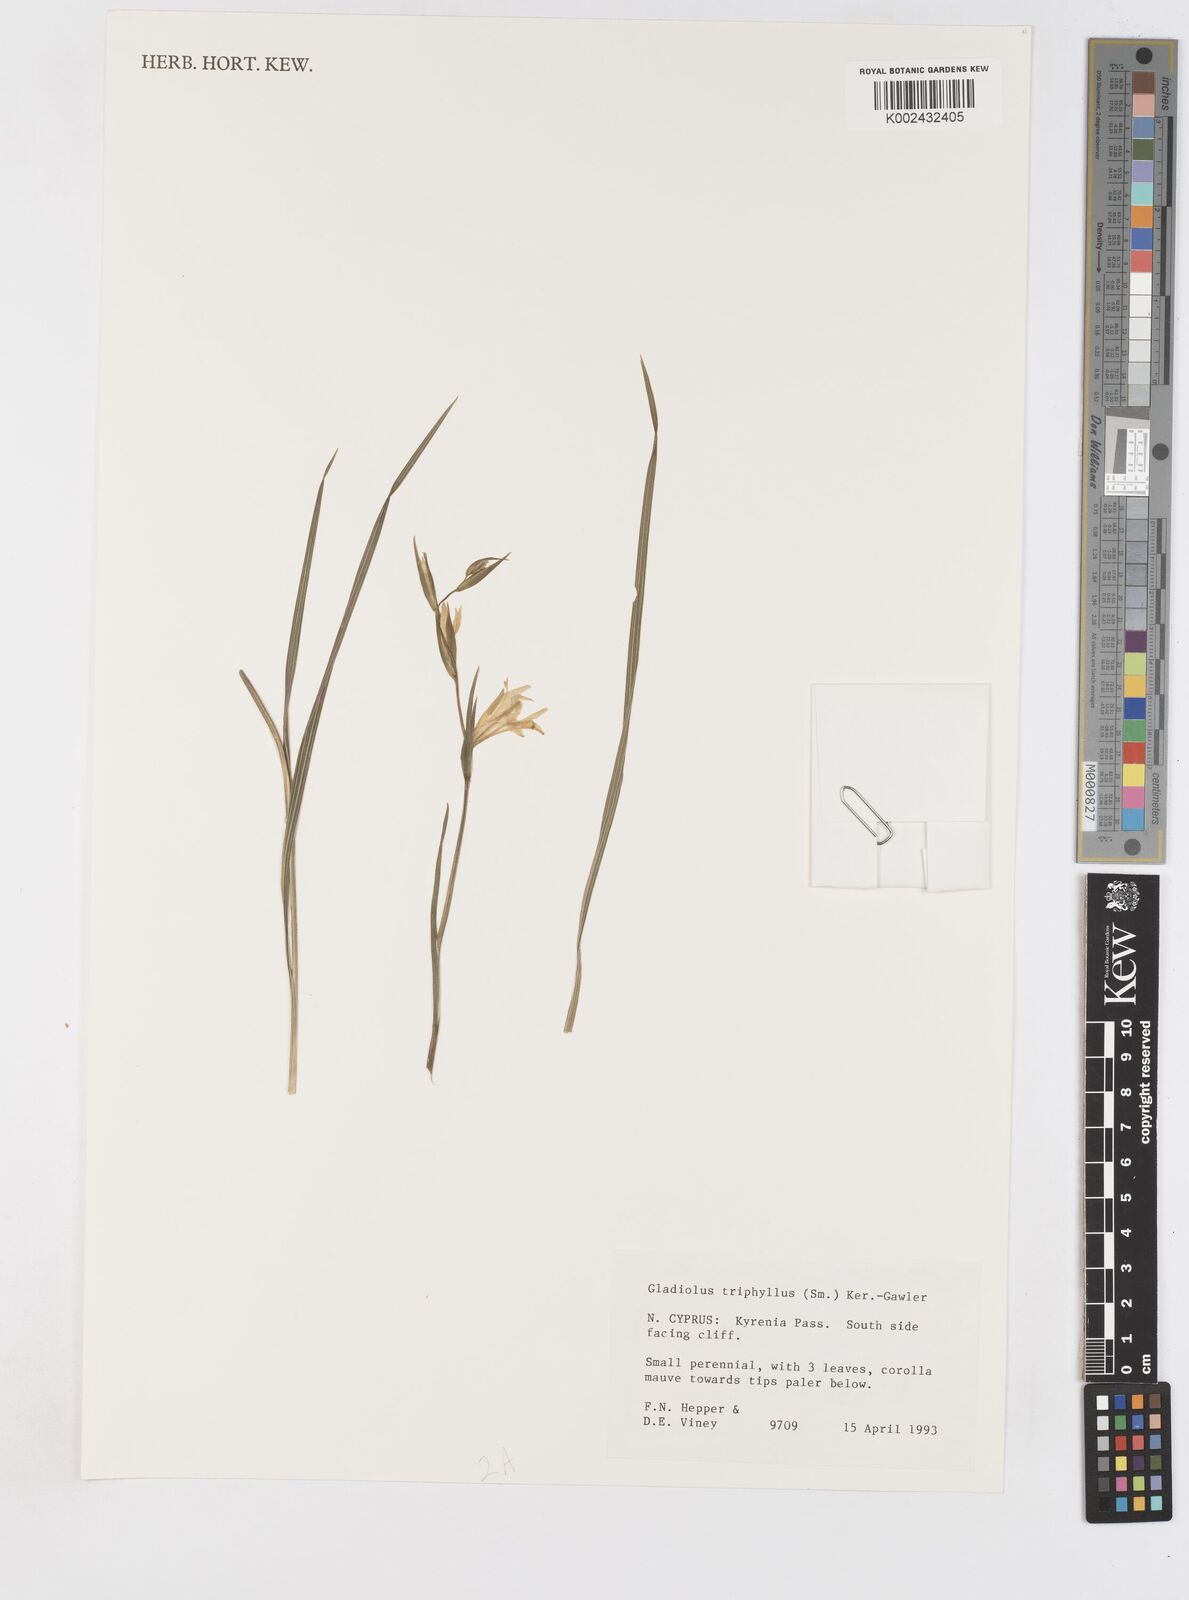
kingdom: Plantae
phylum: Tracheophyta
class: Liliopsida
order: Asparagales
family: Iridaceae
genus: Gladiolus
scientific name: Gladiolus triphyllus
